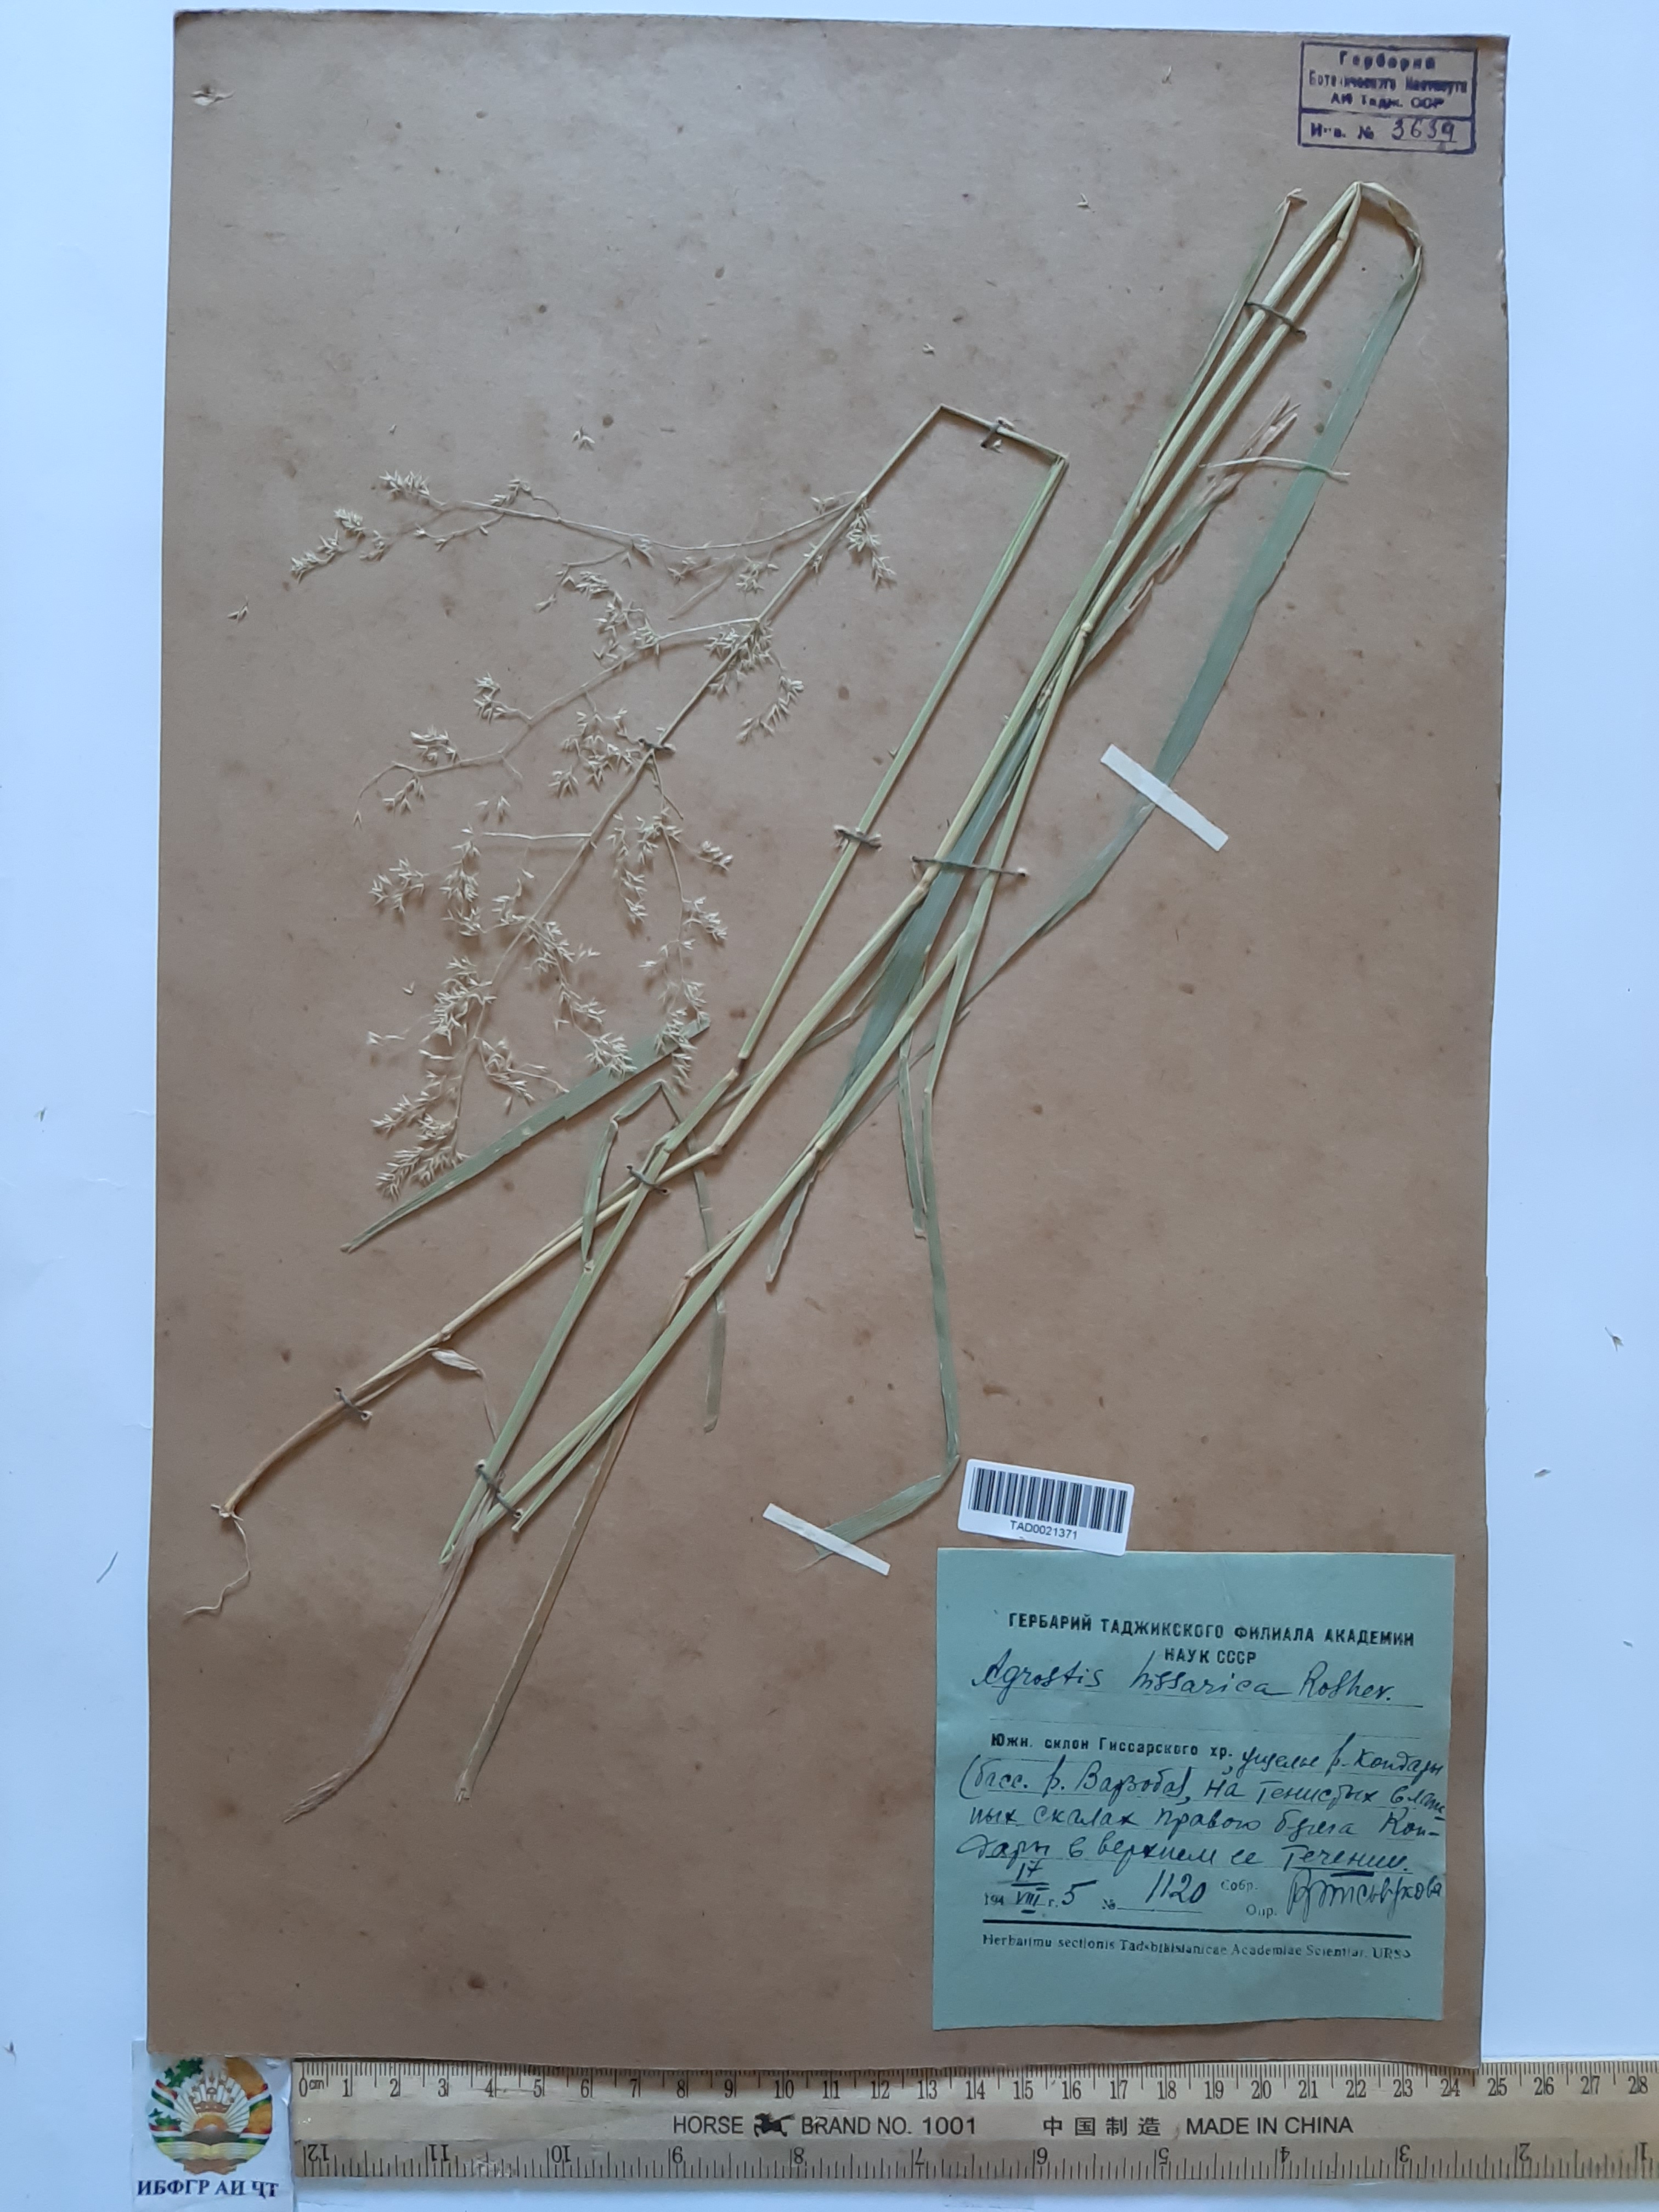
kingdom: Plantae
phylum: Tracheophyta
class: Liliopsida
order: Poales
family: Poaceae
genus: Polypogon
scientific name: Polypogon hissaricus
